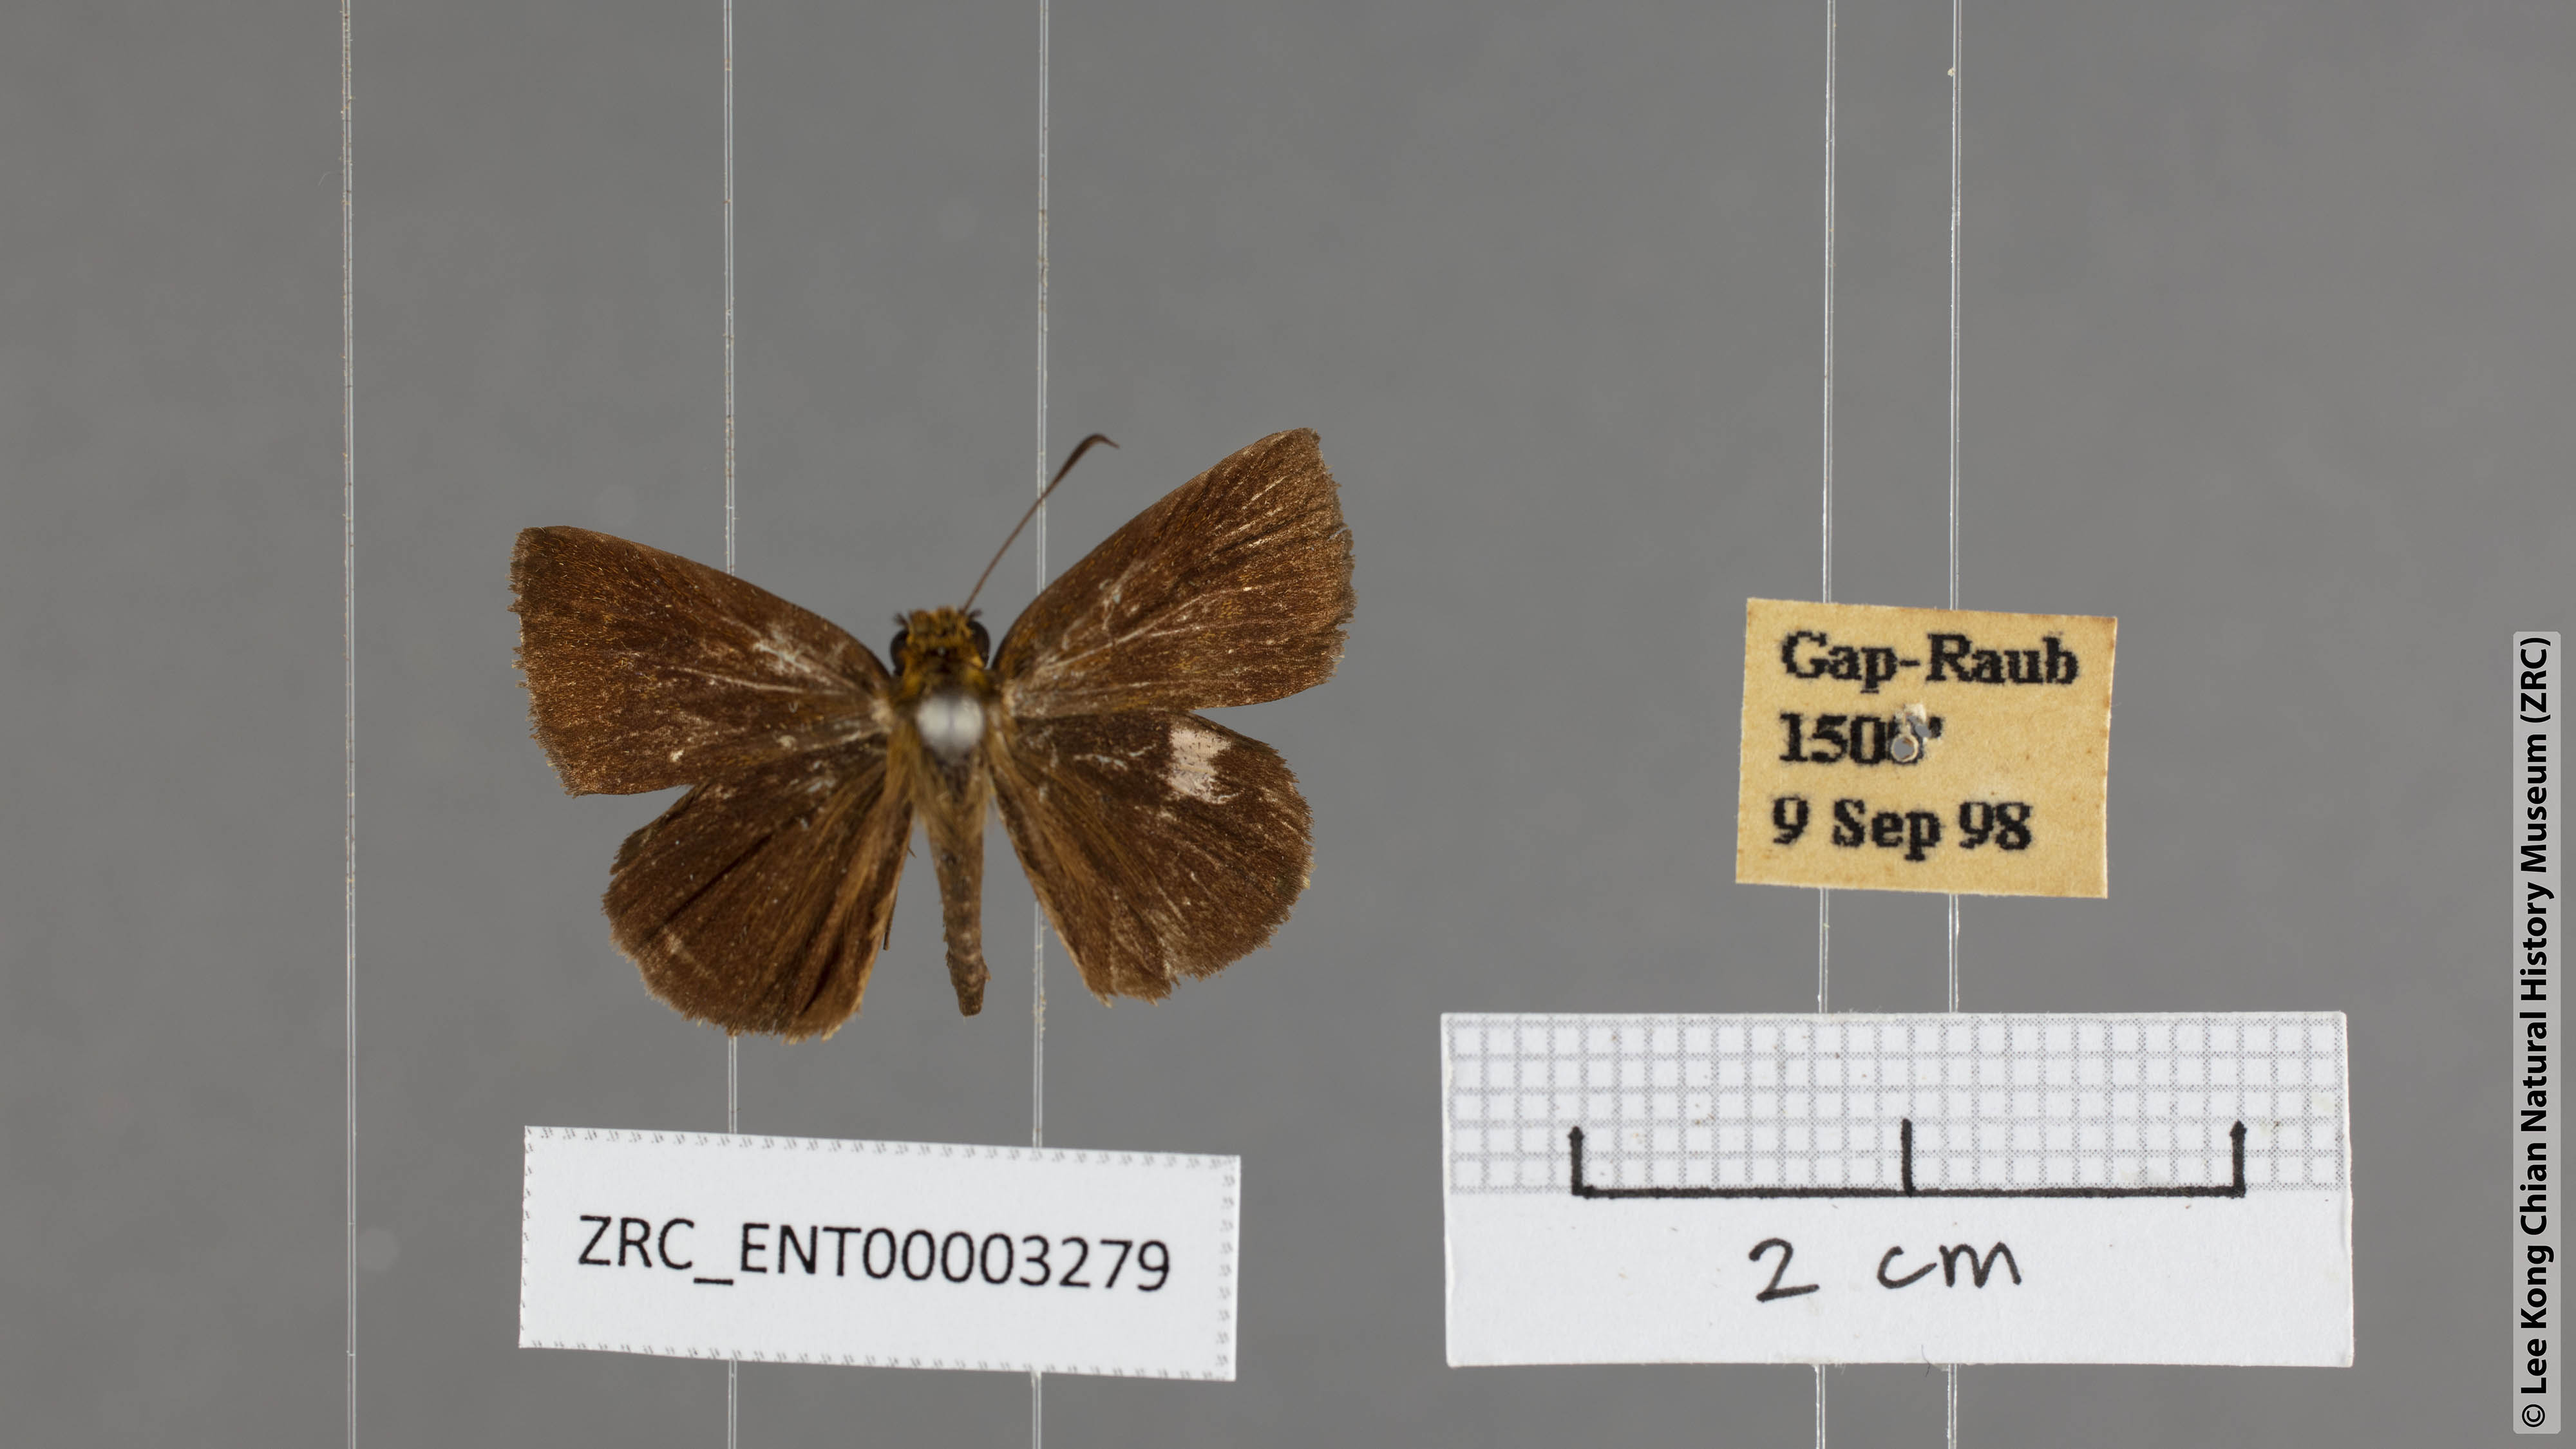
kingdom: Animalia
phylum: Arthropoda
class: Insecta
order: Lepidoptera
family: Hesperiidae
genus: Iambrix
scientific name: Iambrix salsala
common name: Chestnut bob
